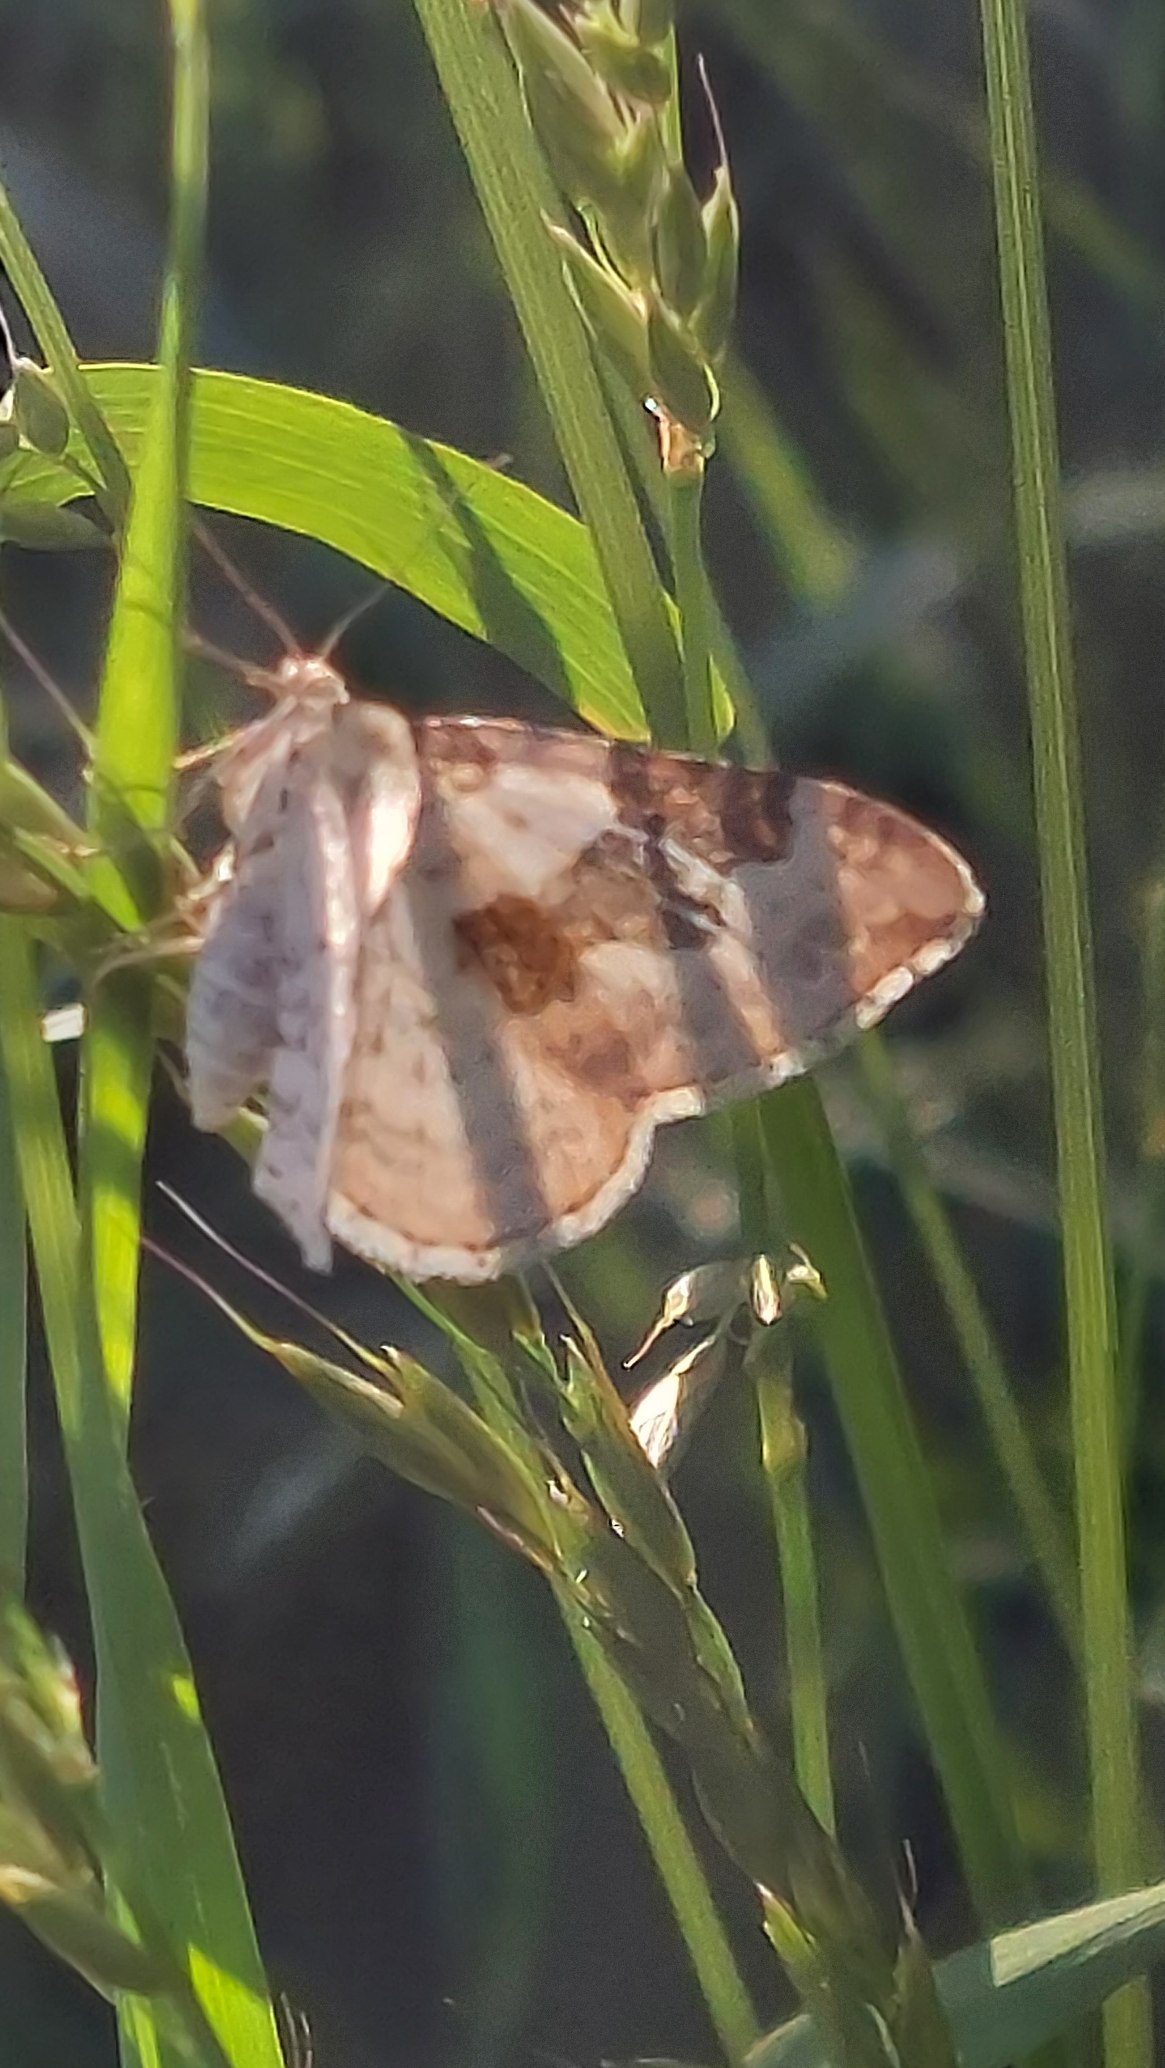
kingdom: Animalia
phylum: Arthropoda
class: Insecta
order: Lepidoptera
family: Geometridae
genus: Xanthorhoe
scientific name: Xanthorhoe montanata
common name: Bakke-bladmåler
